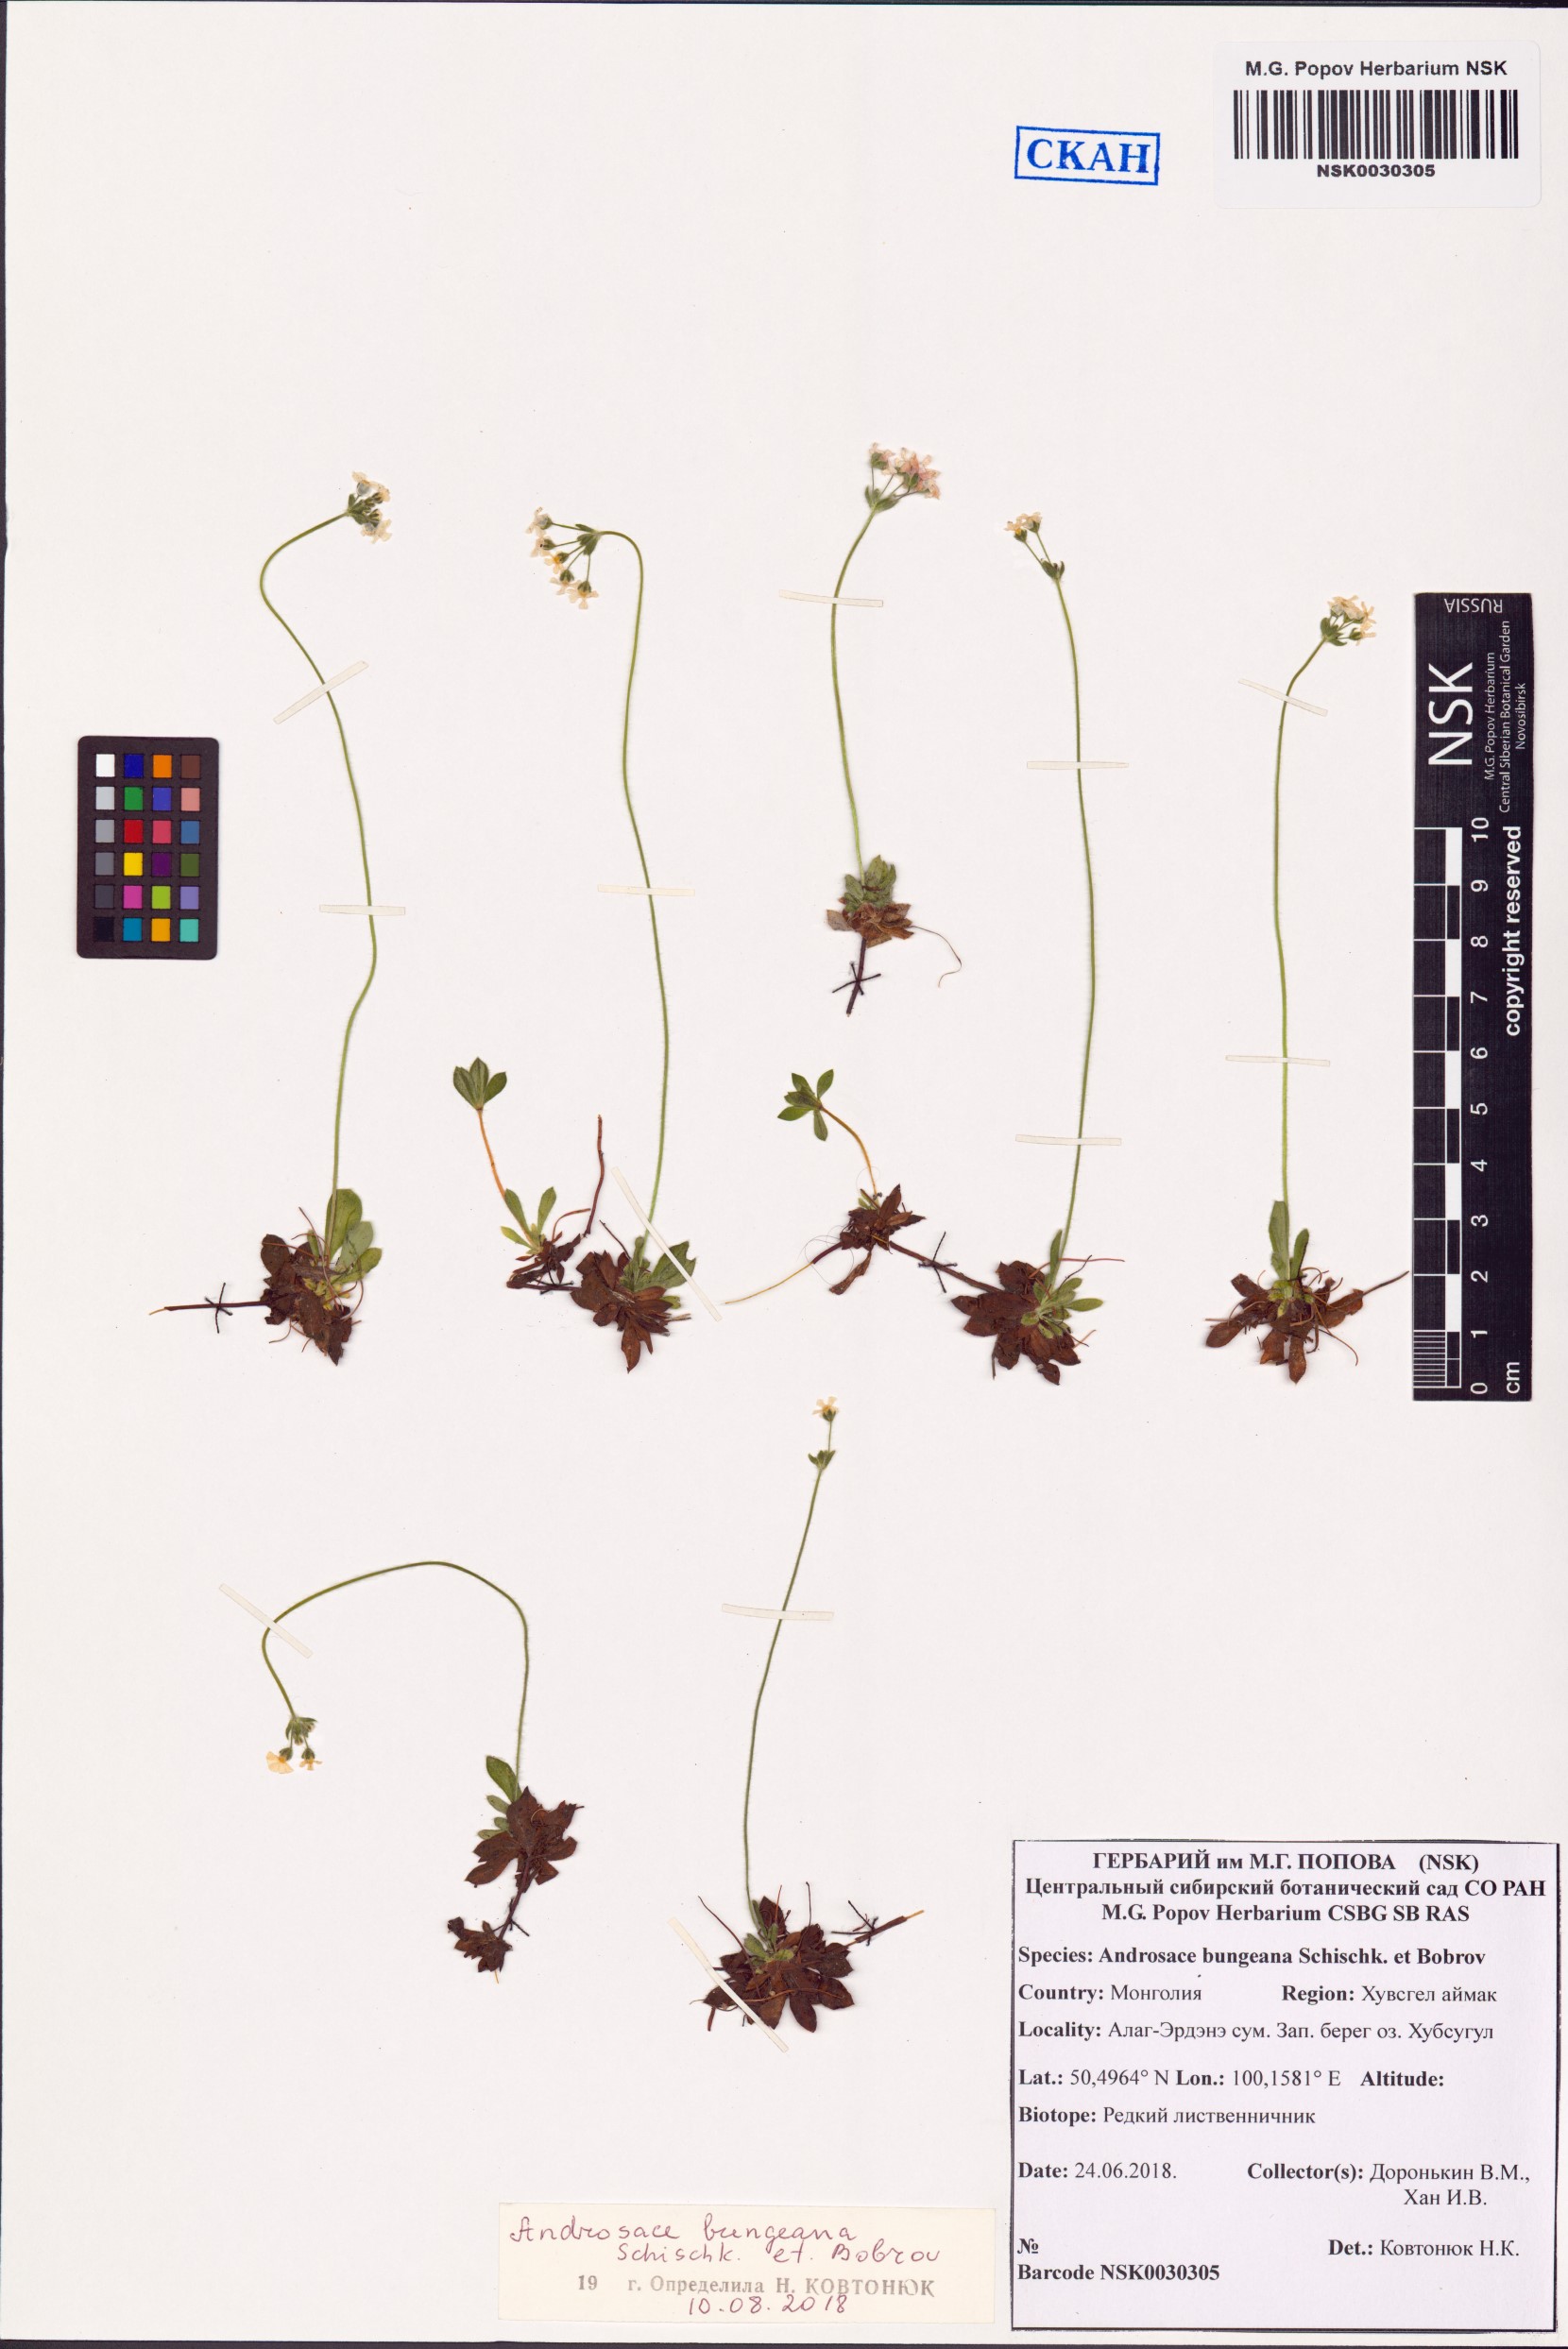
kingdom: Plantae
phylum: Tracheophyta
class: Magnoliopsida
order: Ericales
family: Primulaceae
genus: Androsace
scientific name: Androsace bungeana
